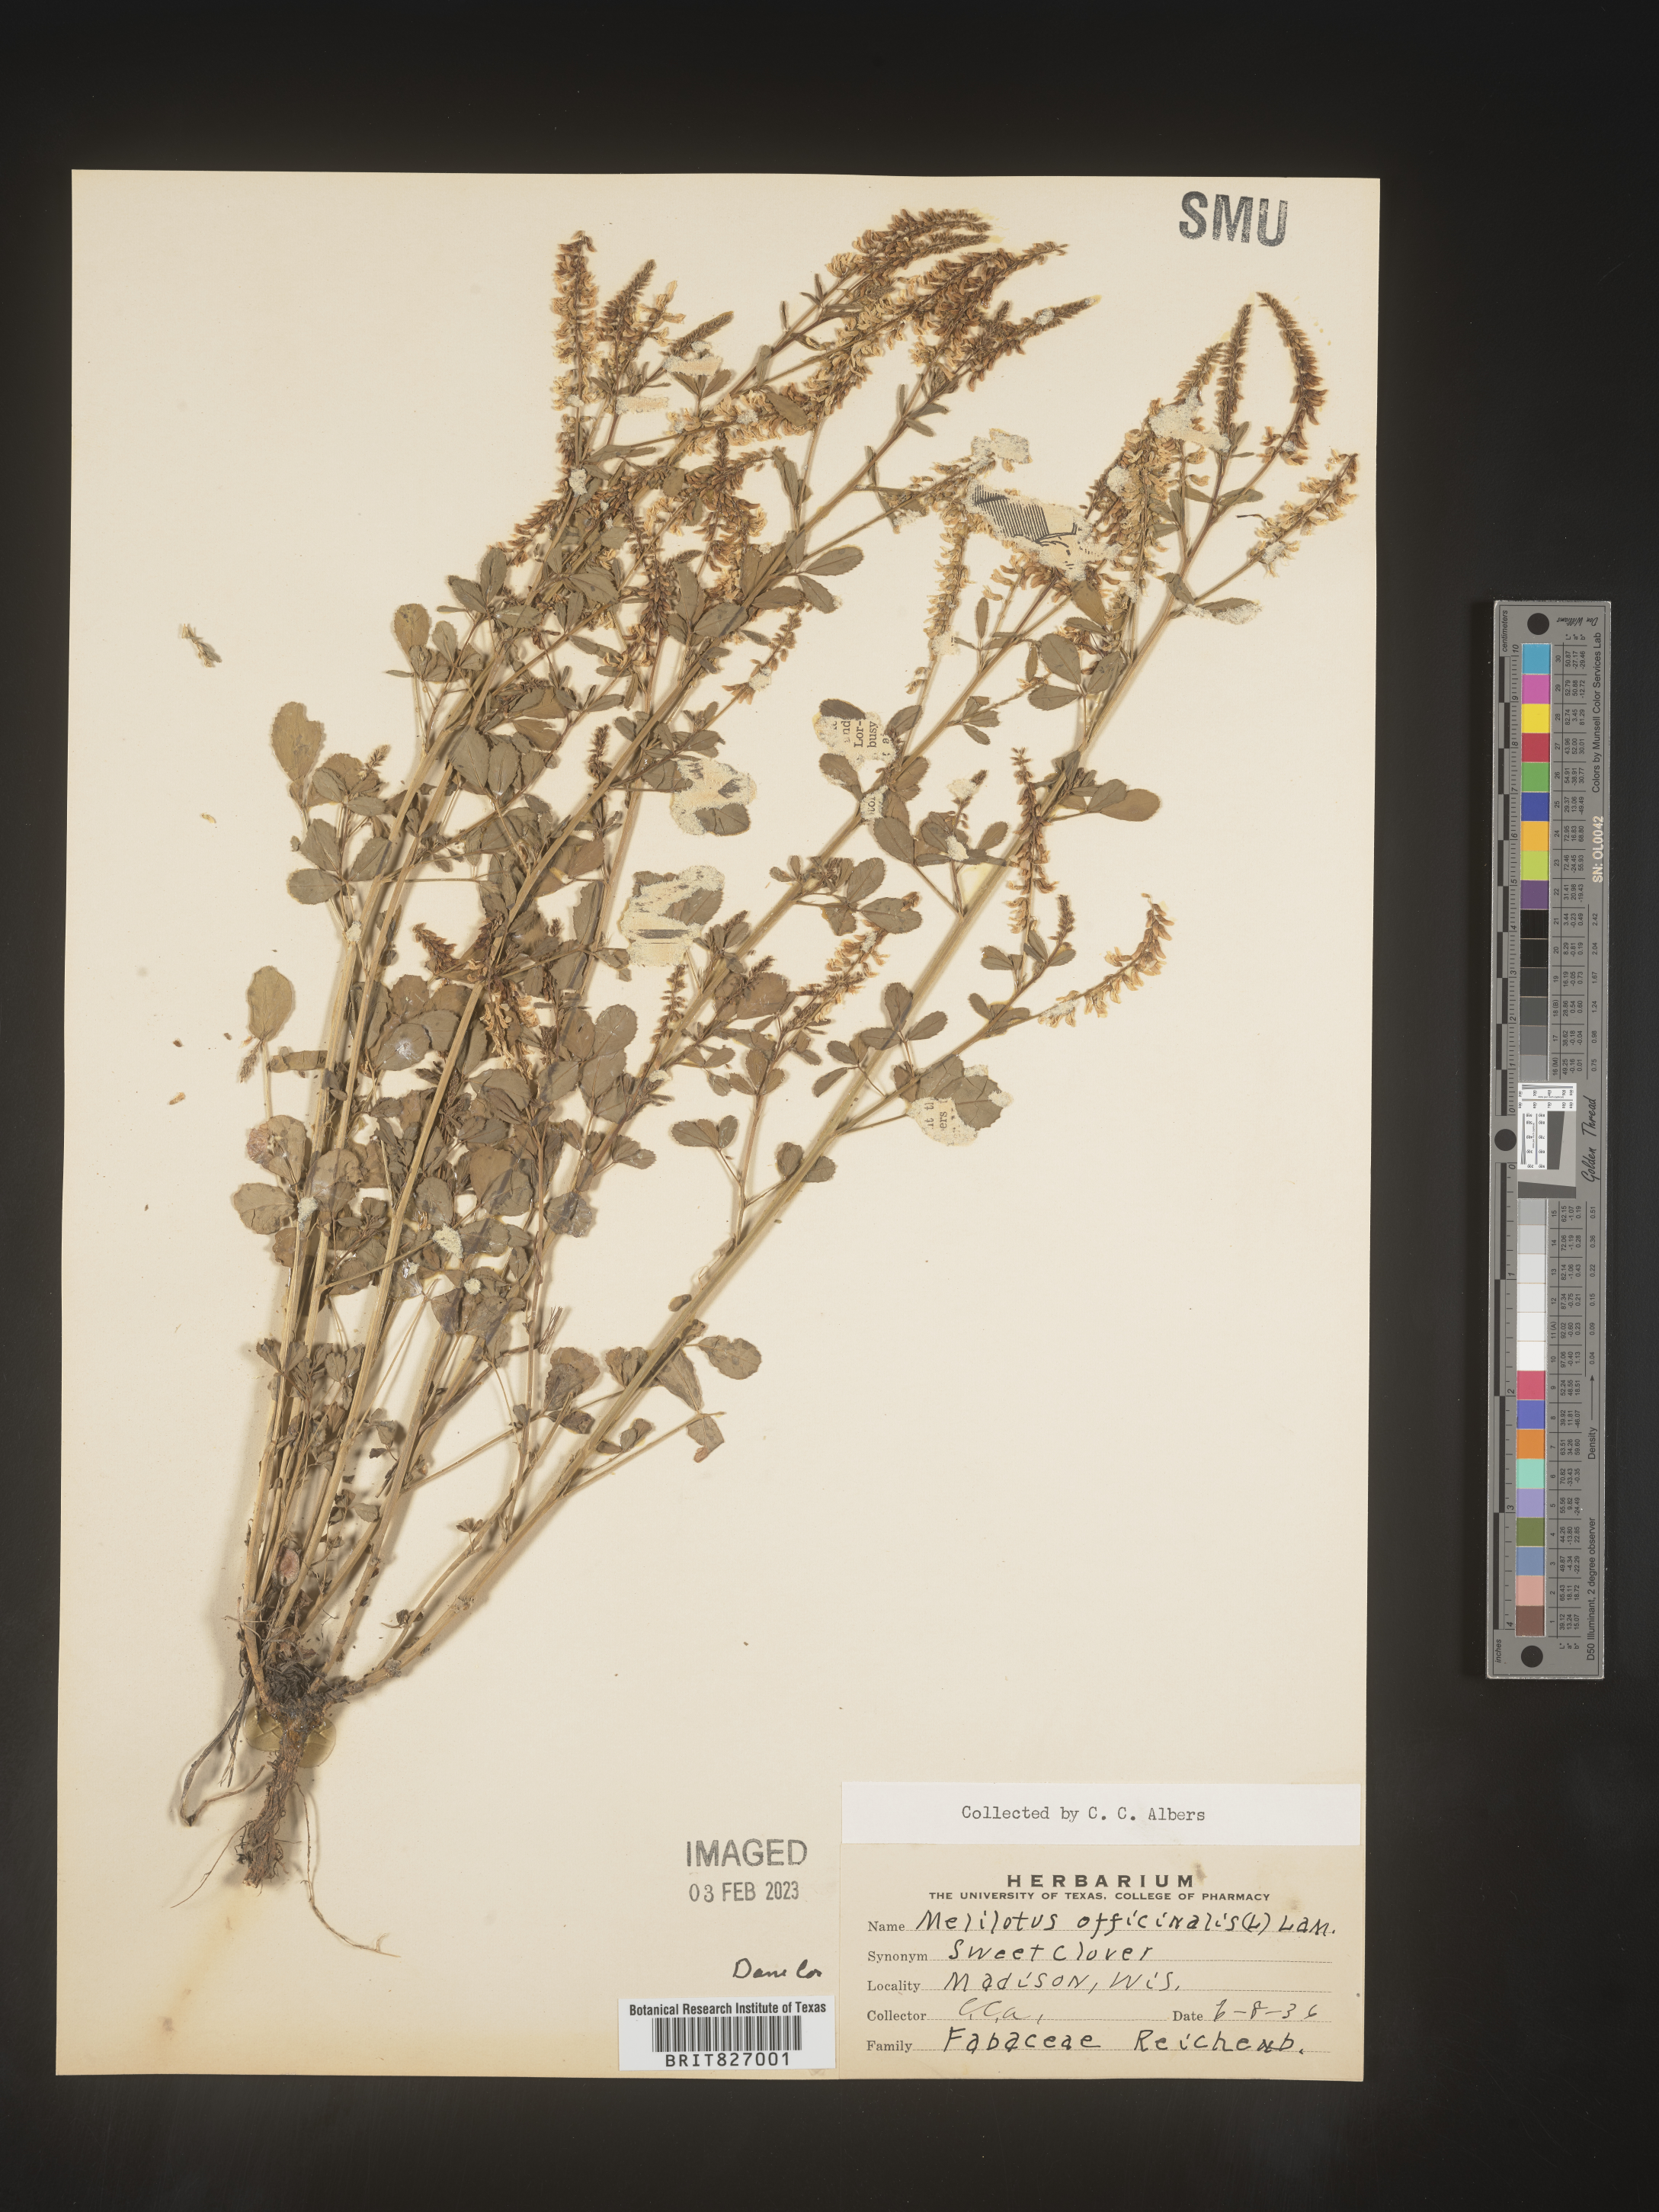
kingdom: Plantae
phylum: Tracheophyta
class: Magnoliopsida
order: Fabales
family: Fabaceae
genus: Melilotus
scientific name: Melilotus officinalis
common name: Sweetclover
